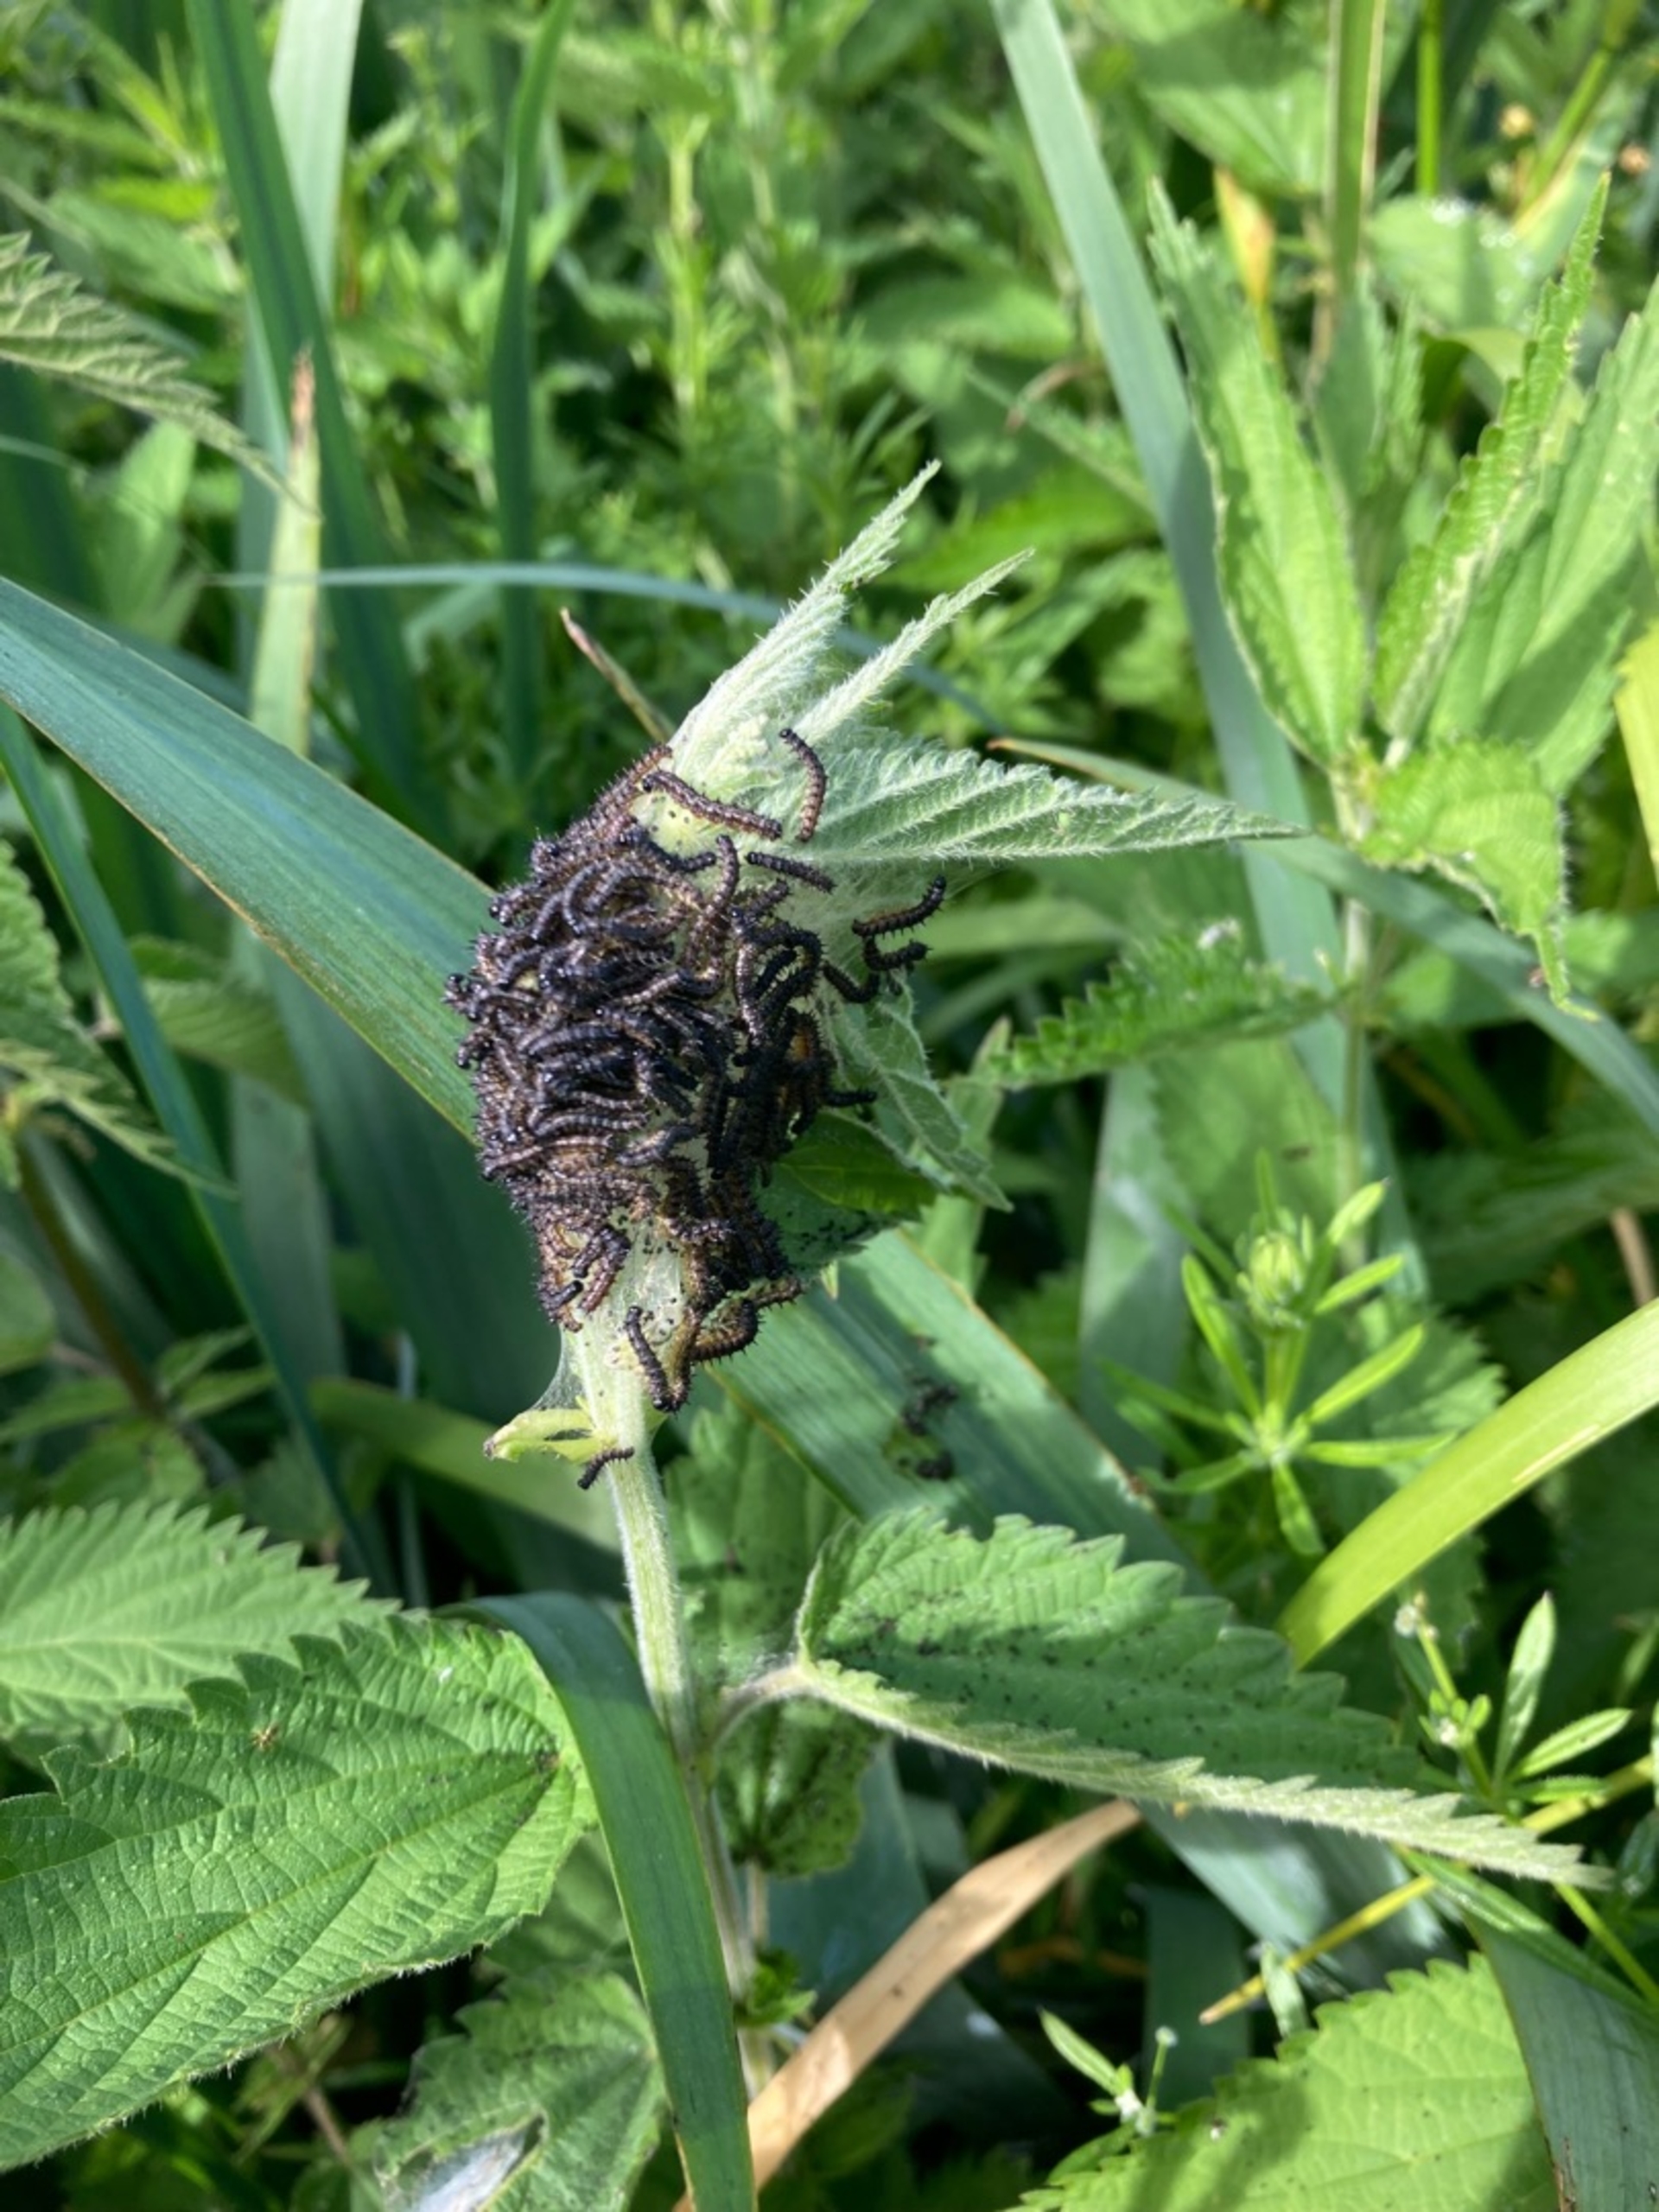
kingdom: Animalia
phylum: Arthropoda
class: Insecta
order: Lepidoptera
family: Nymphalidae
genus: Aglais
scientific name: Aglais urticae
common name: Nældens takvinge
